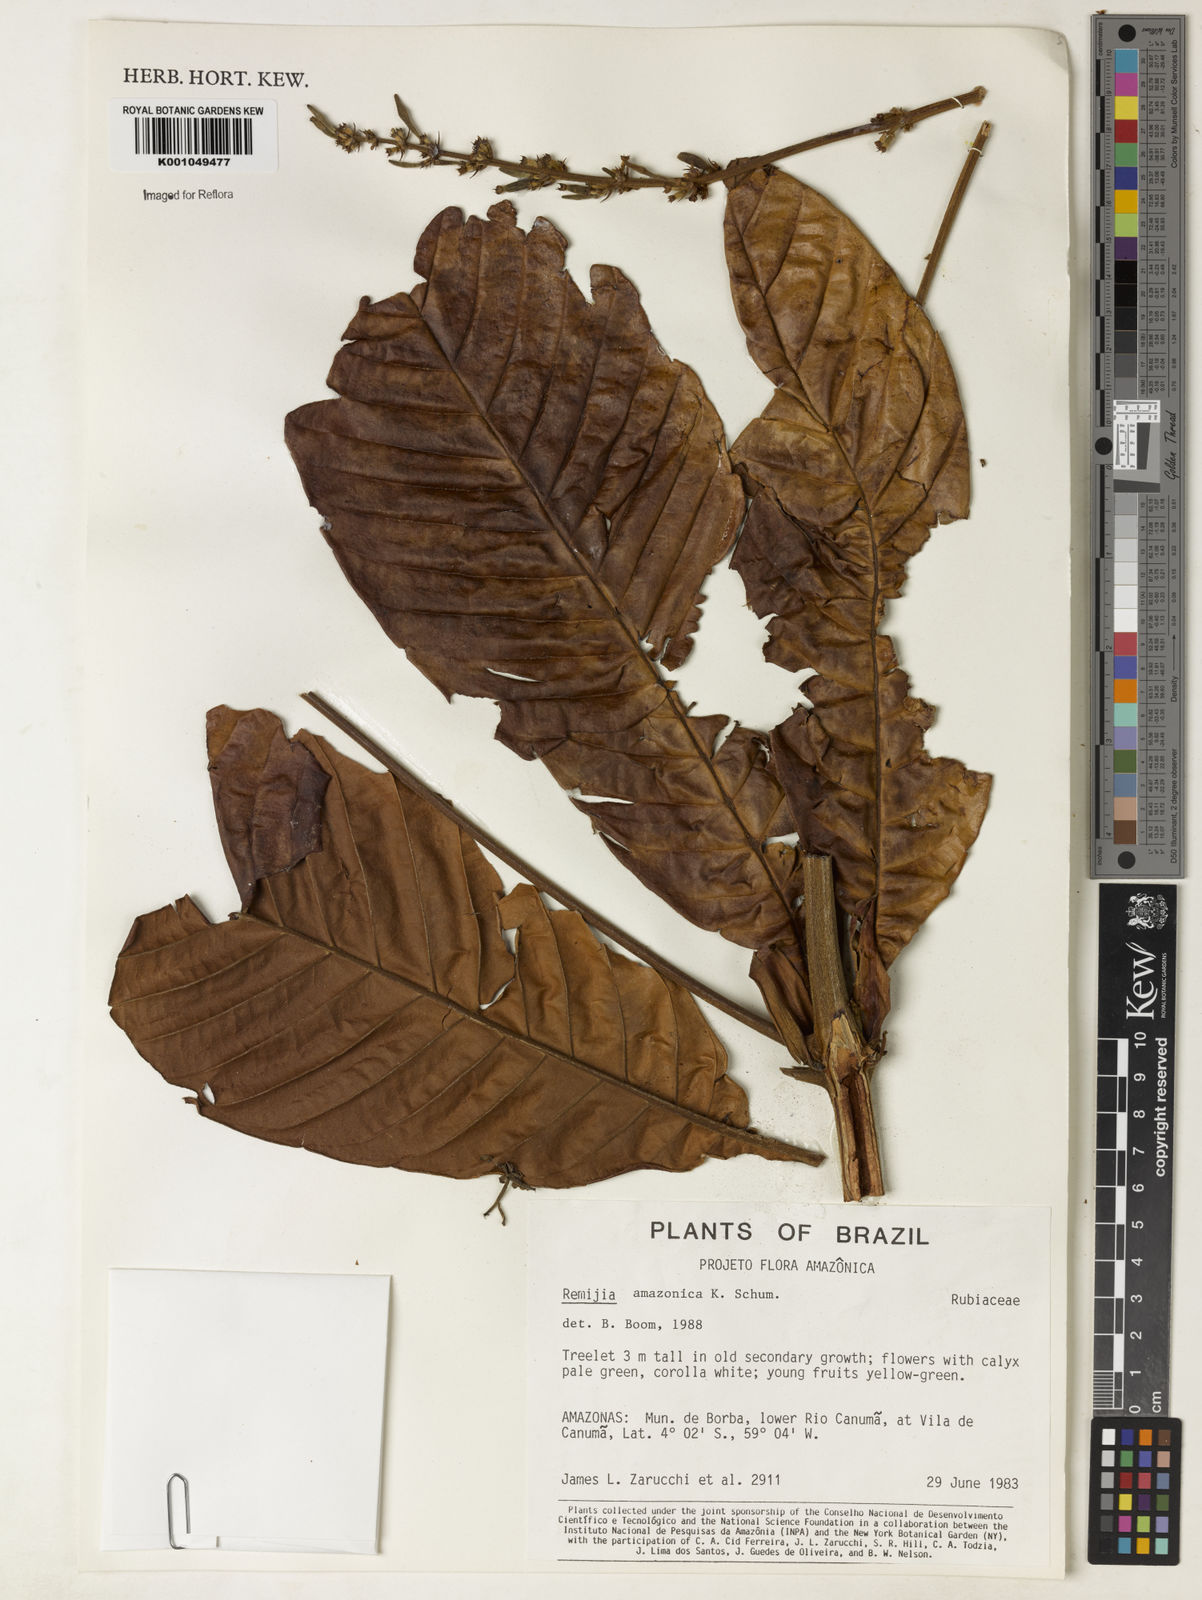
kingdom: Plantae
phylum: Tracheophyta
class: Magnoliopsida
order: Gentianales
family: Rubiaceae
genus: Remijia
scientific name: Remijia amazonica
